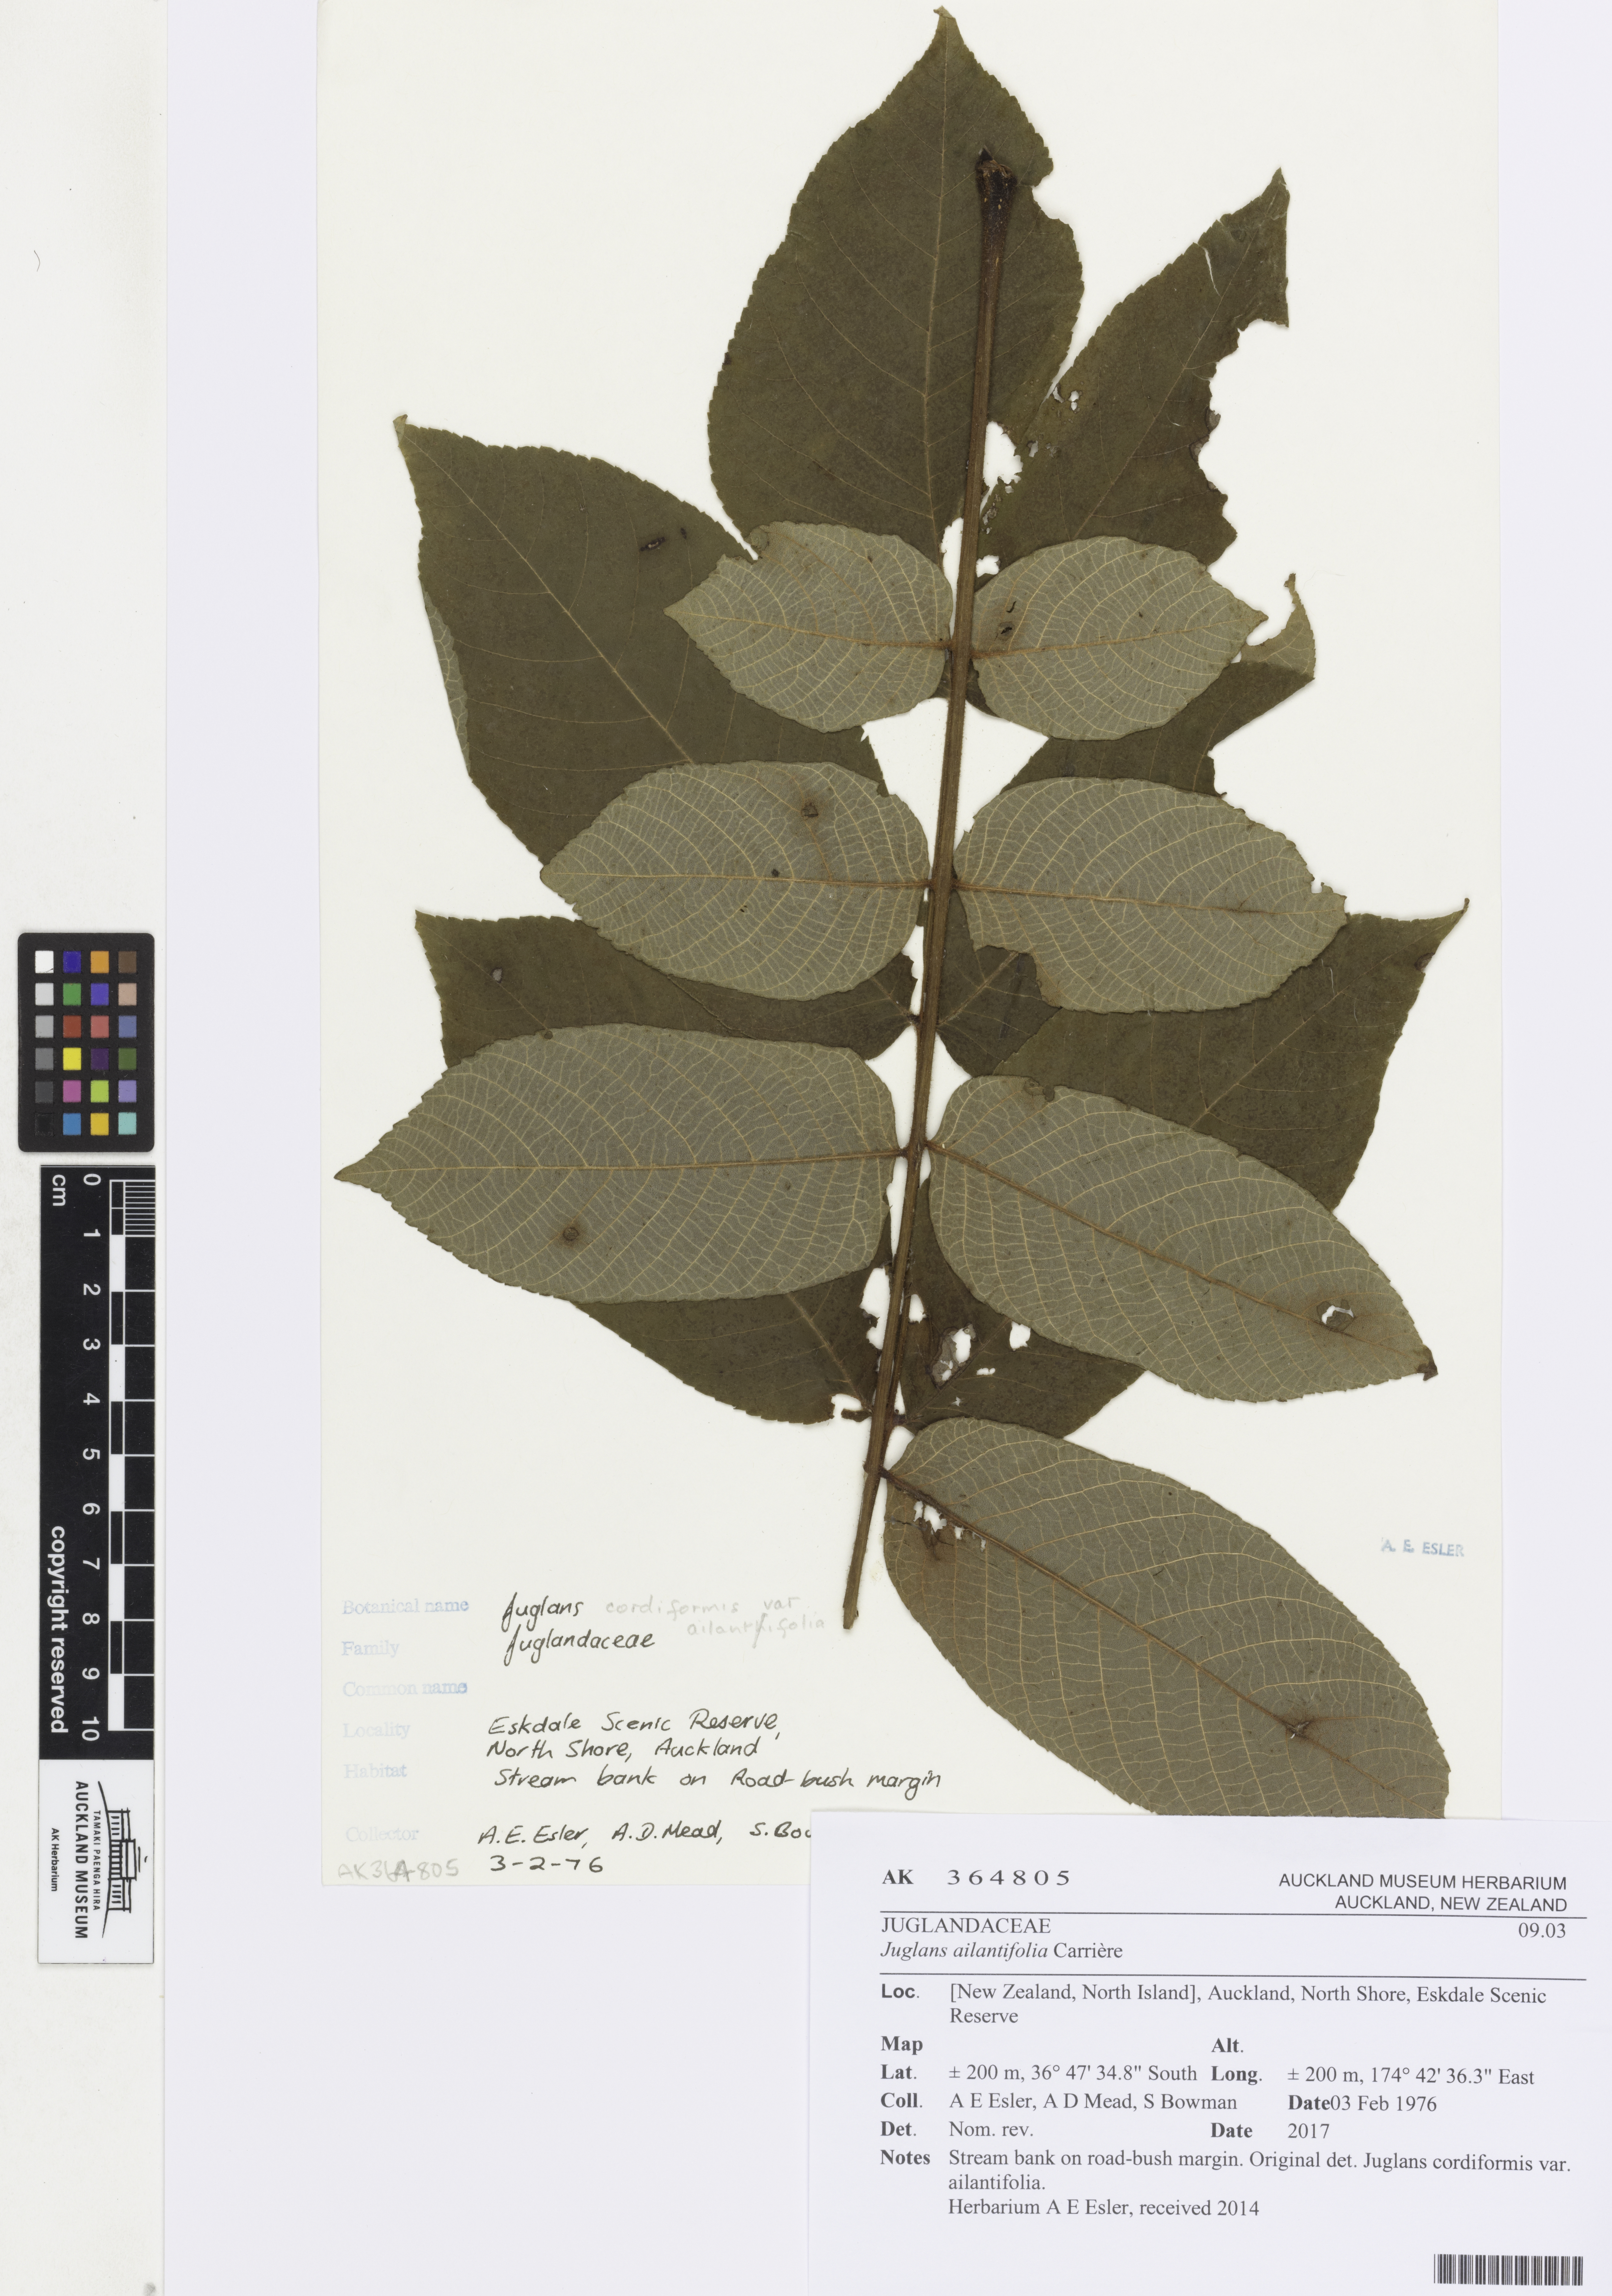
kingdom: Plantae
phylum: Tracheophyta
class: Magnoliopsida
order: Fagales
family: Juglandaceae
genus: Juglans
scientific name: Juglans ailantifolia
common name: Japanese walnut
